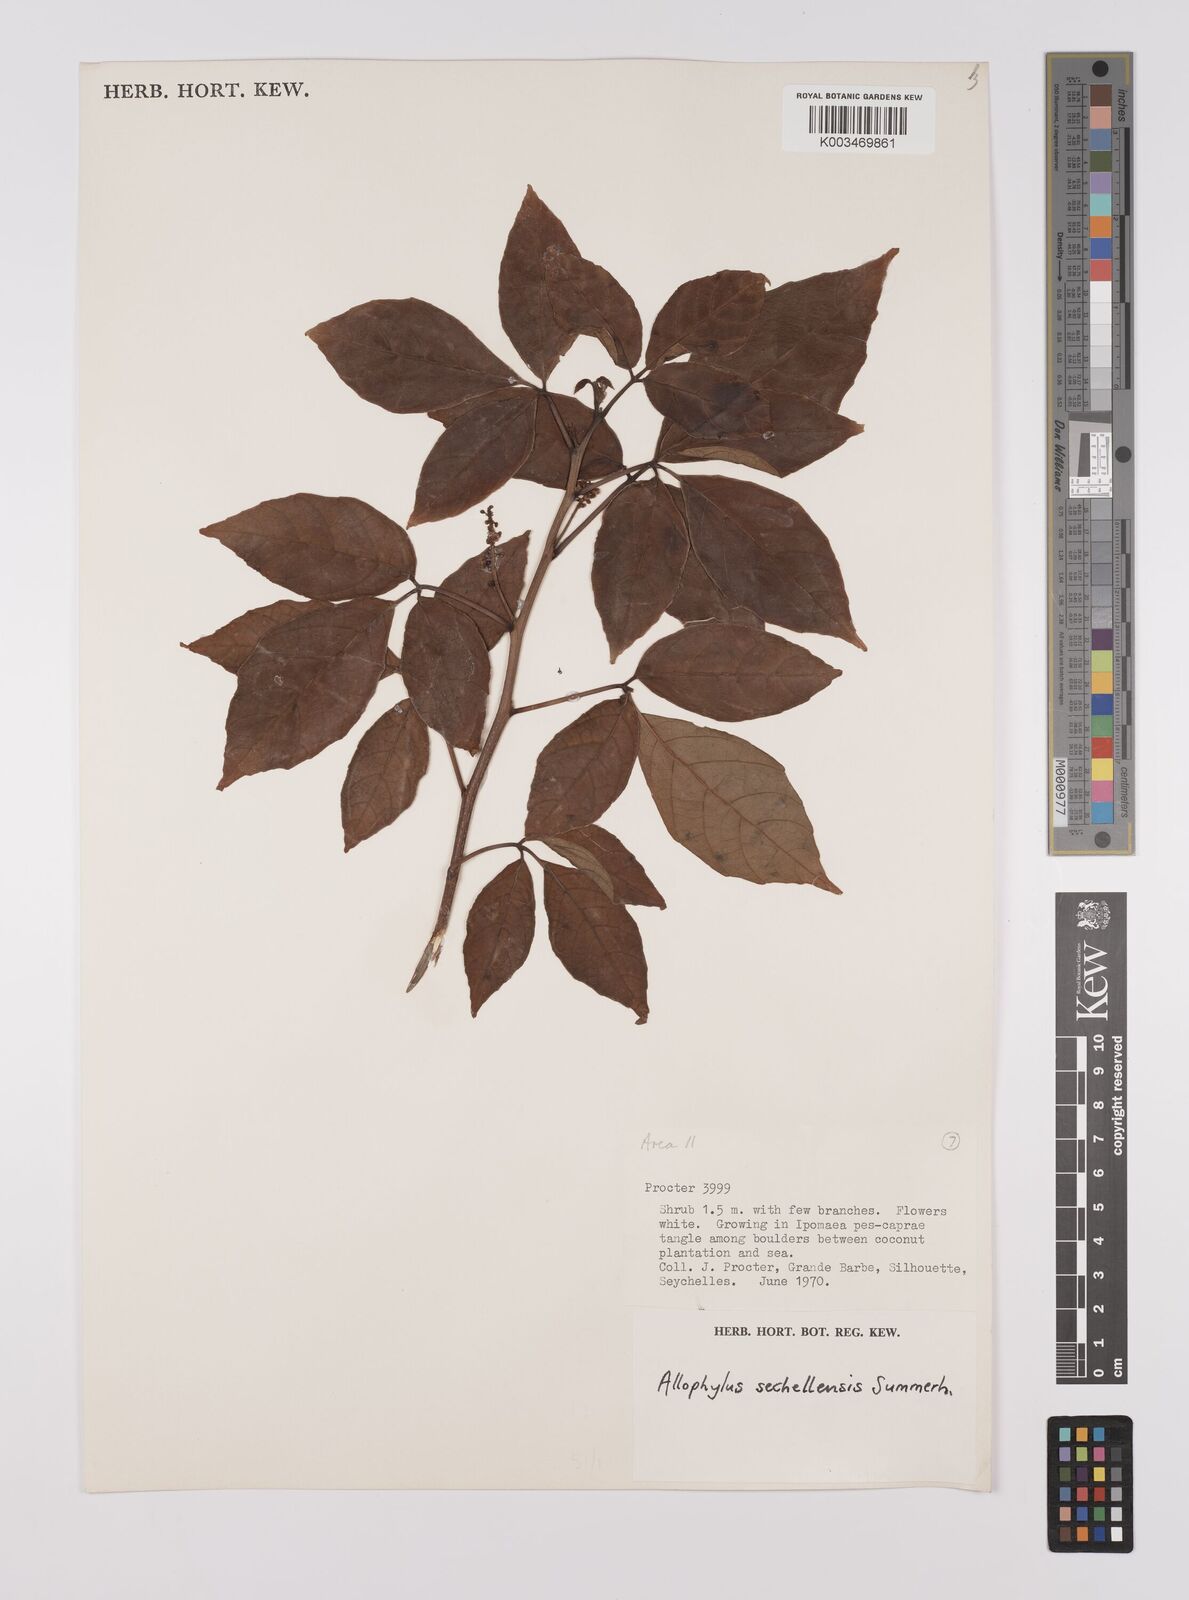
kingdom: Plantae
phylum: Tracheophyta
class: Magnoliopsida
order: Sapindales
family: Sapindaceae
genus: Allophylus
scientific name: Allophylus sechellensis
